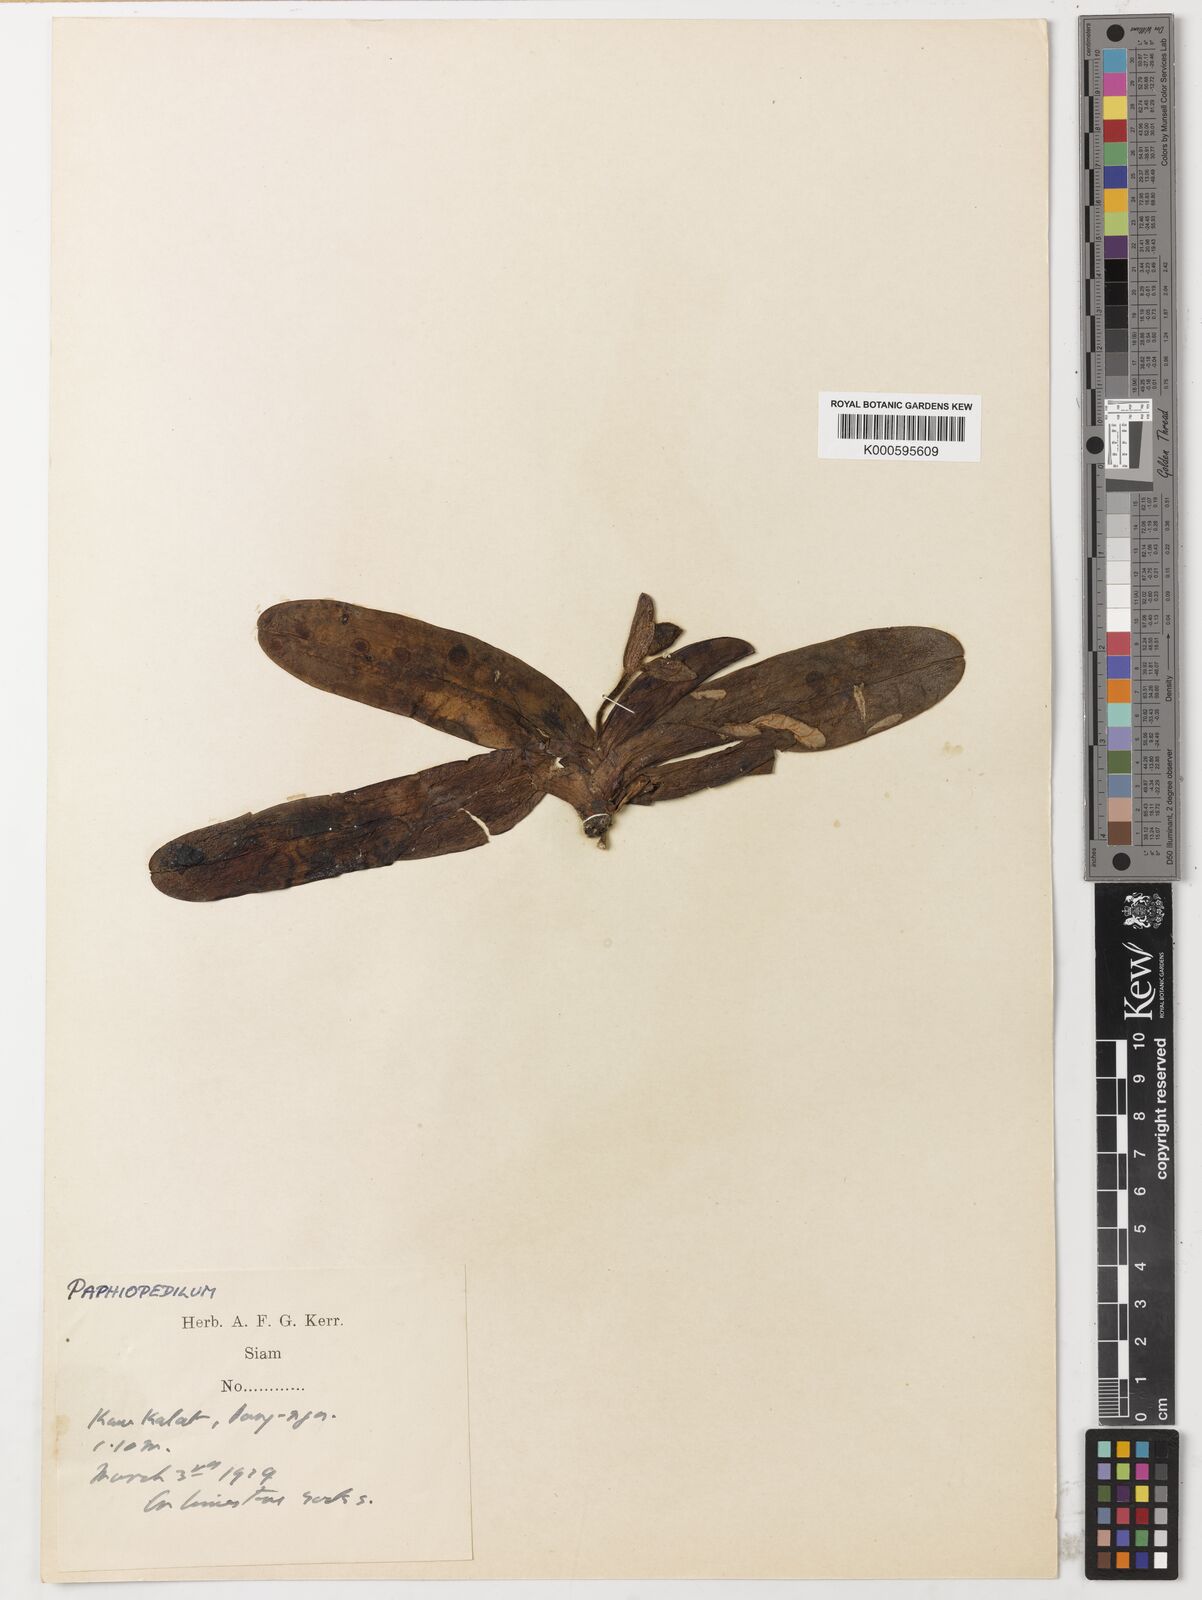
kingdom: Plantae
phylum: Tracheophyta
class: Liliopsida
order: Asparagales
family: Orchidaceae
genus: Paphiopedilum
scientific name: Paphiopedilum godefroyae
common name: Godefroy's paphiopedilum
